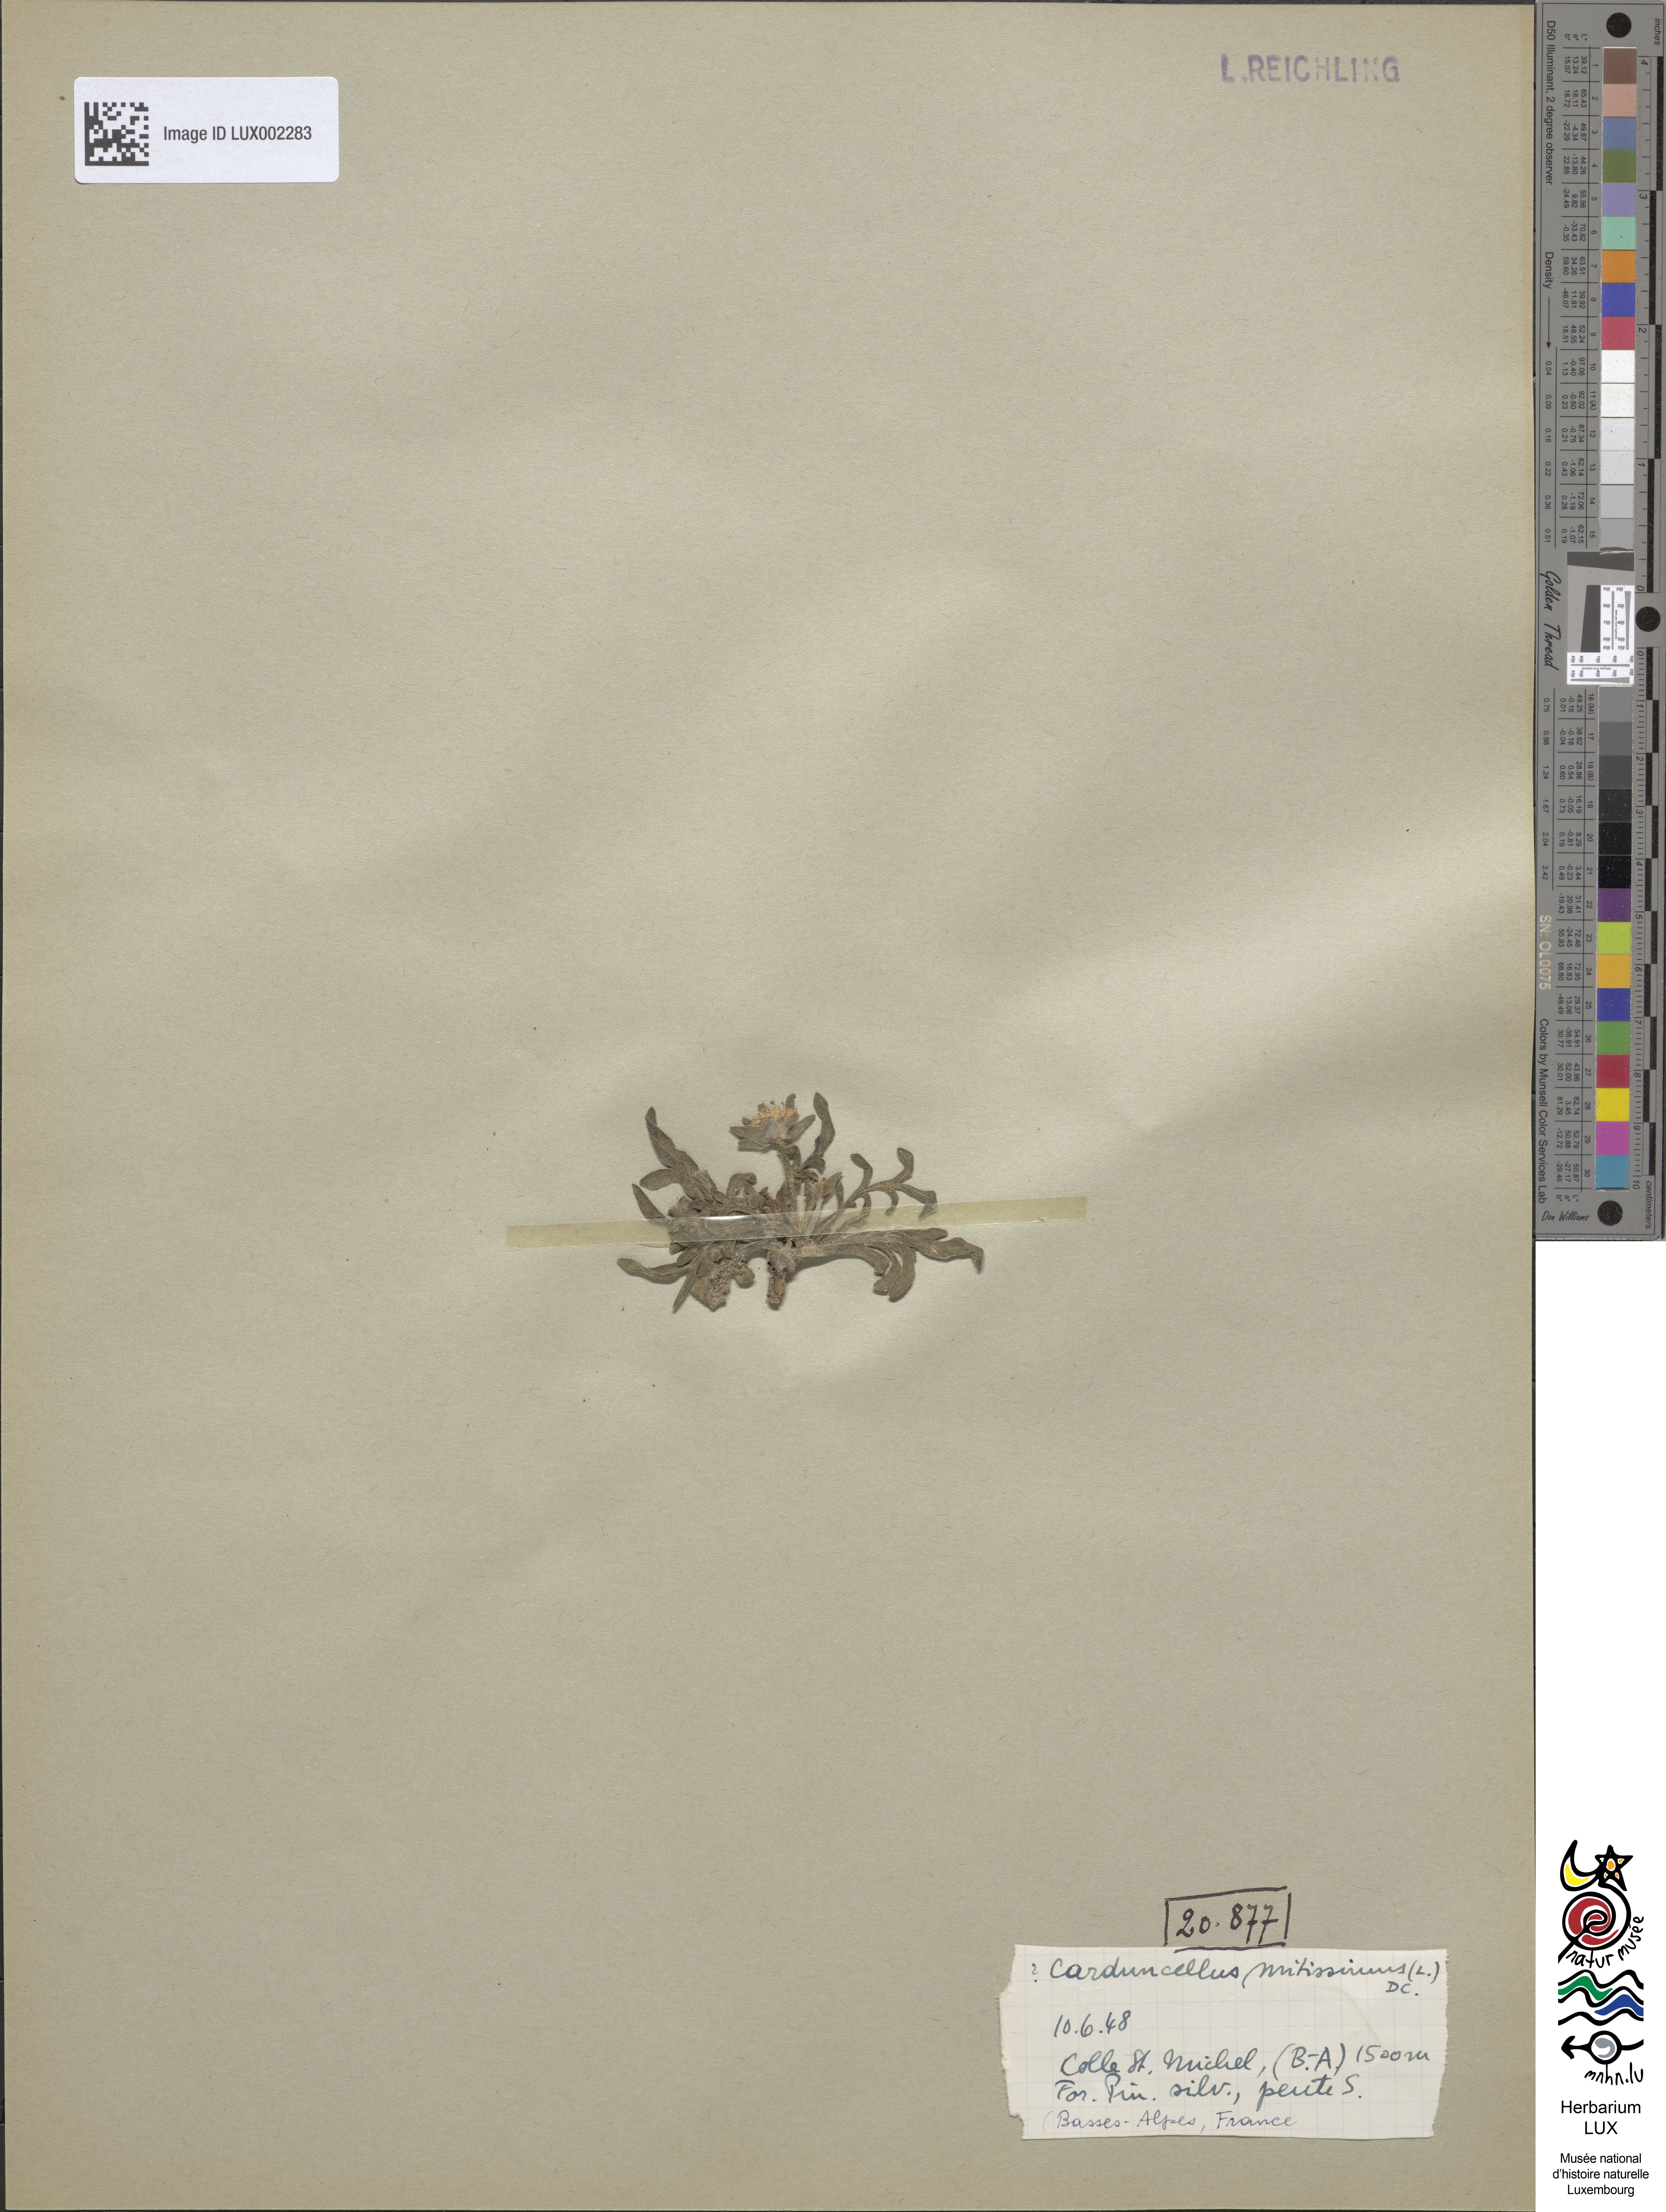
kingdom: Plantae
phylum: Tracheophyta
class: Magnoliopsida
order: Asterales
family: Asteraceae
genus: Carduncellus
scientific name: Carduncellus mitissimus
